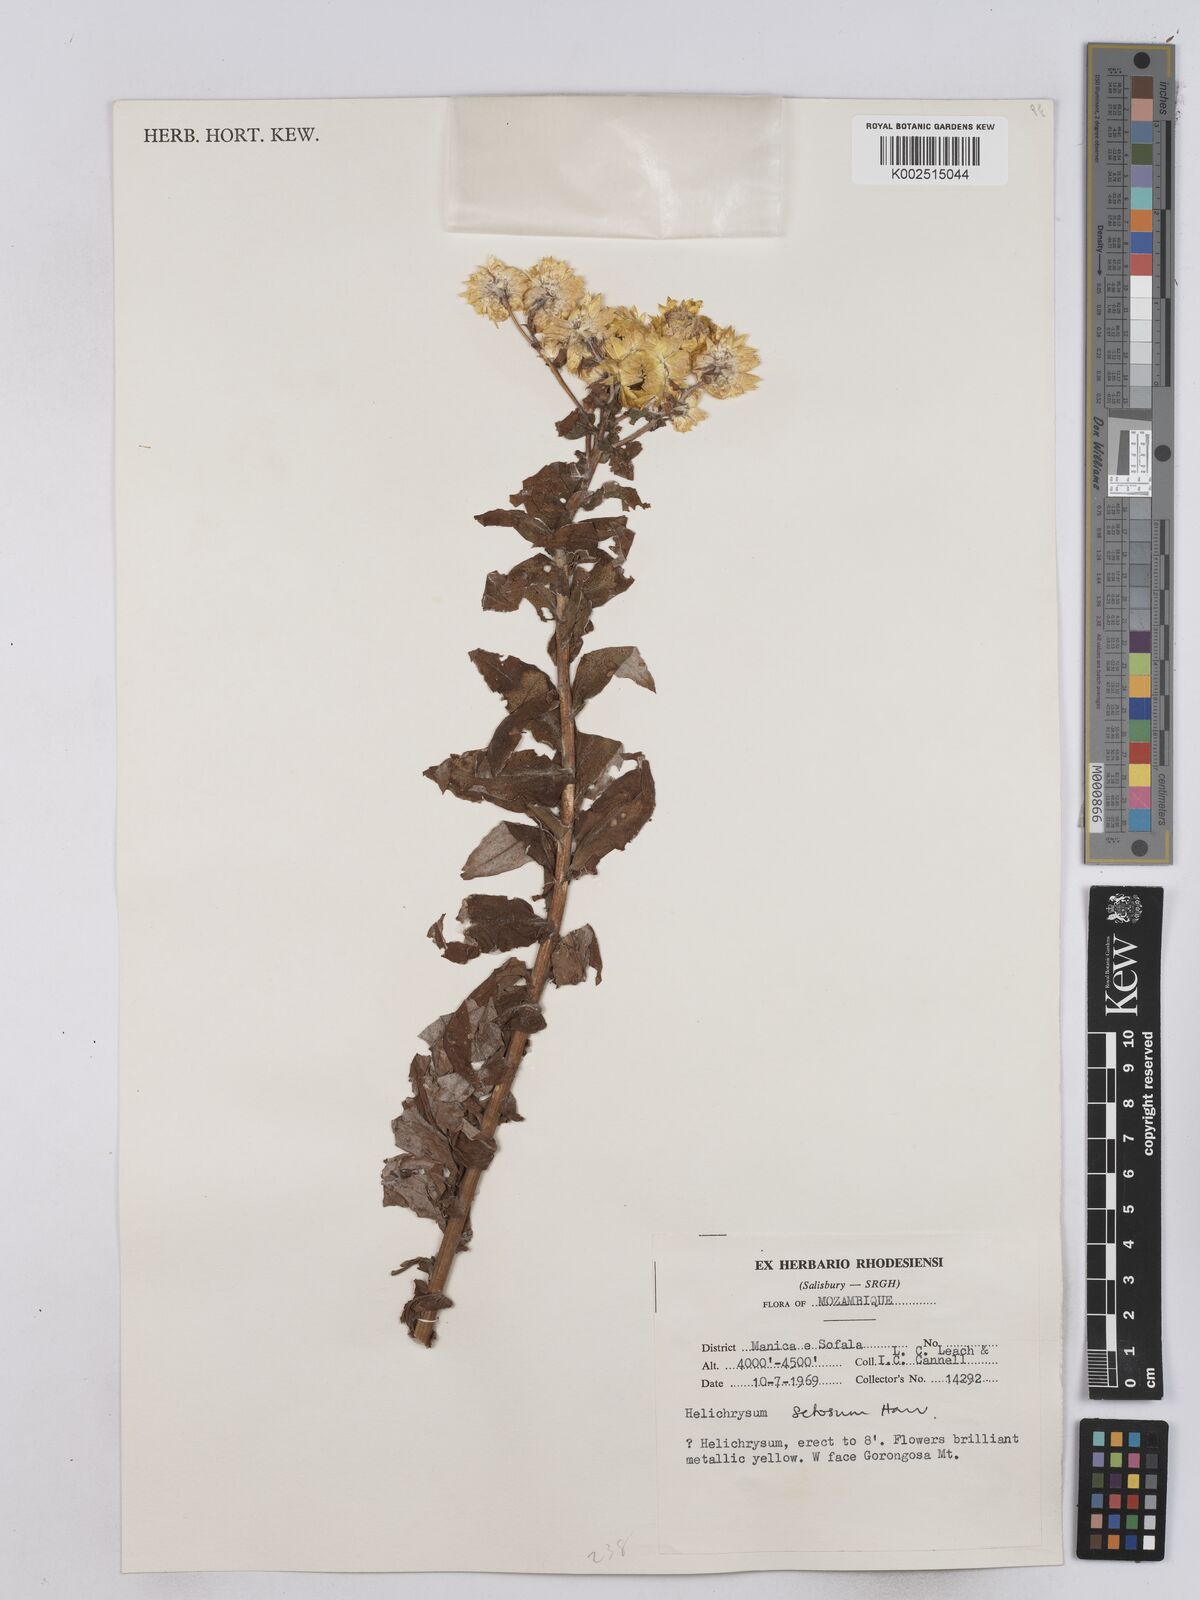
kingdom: Plantae
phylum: Tracheophyta
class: Magnoliopsida
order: Asterales
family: Asteraceae
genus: Helichrysum
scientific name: Helichrysum setosum
